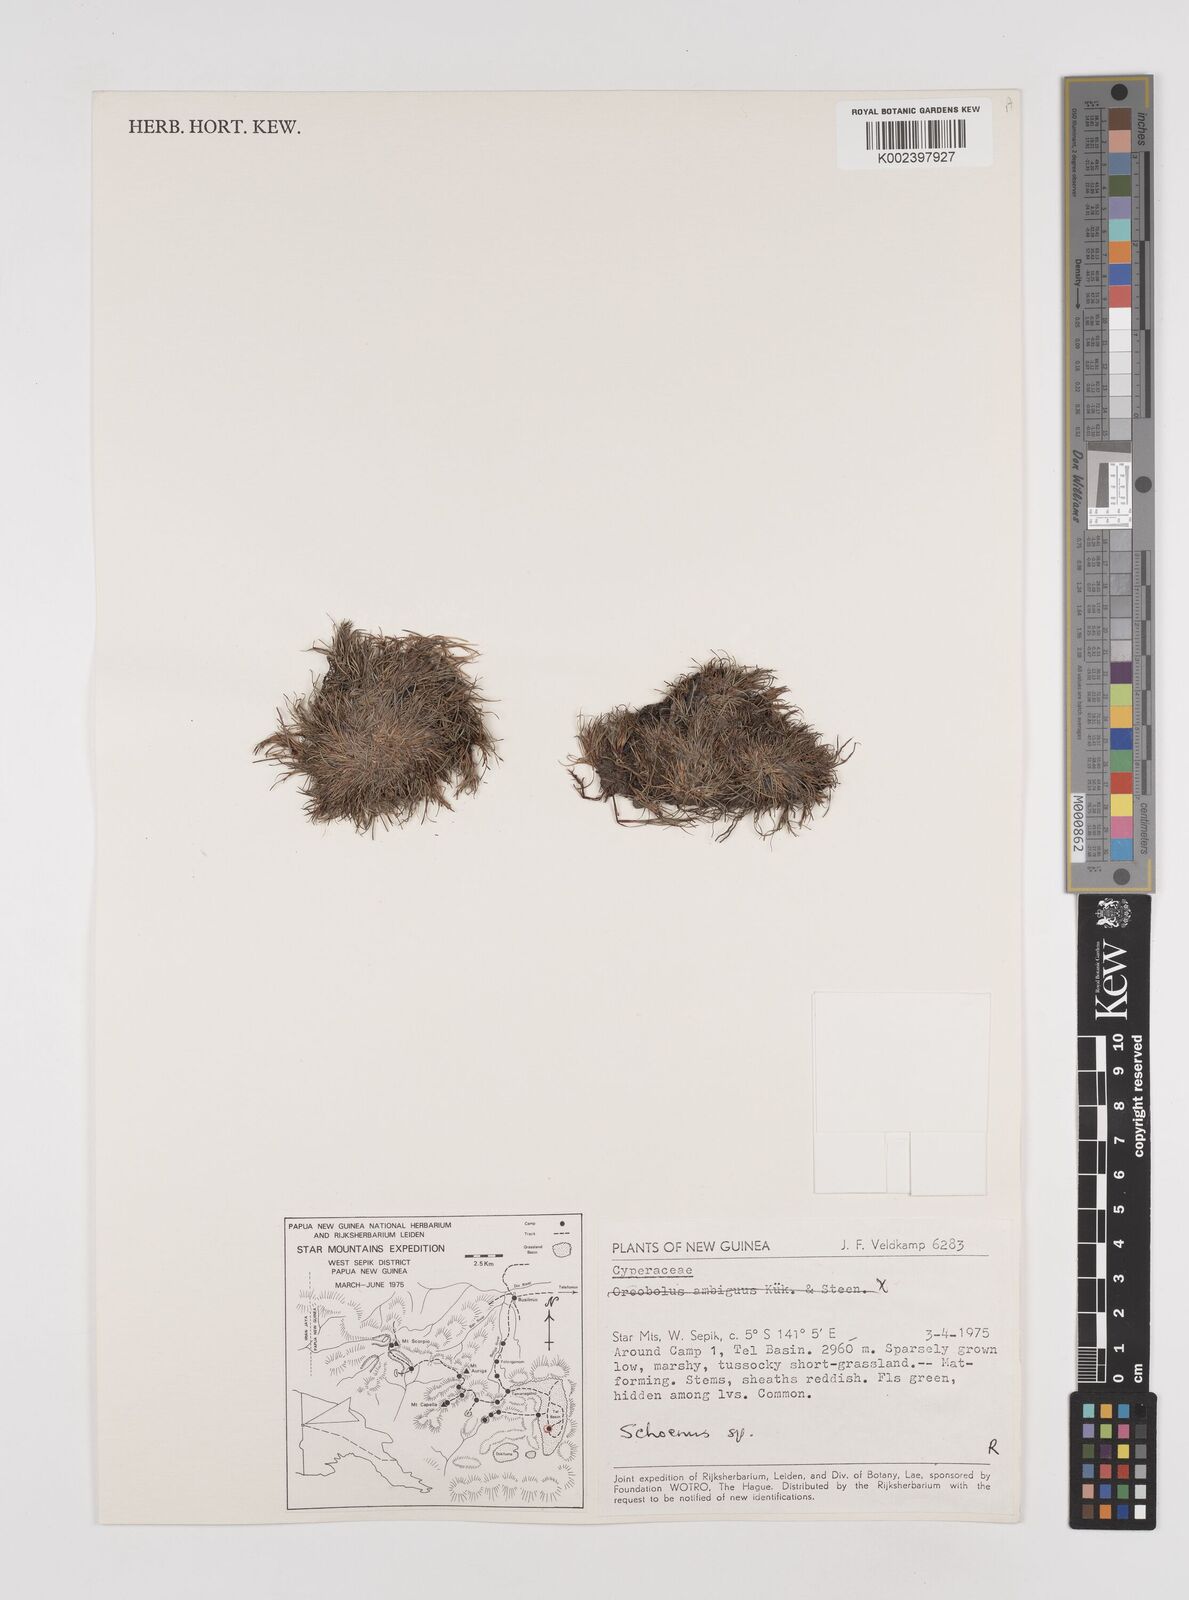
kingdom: Plantae
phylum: Tracheophyta
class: Liliopsida
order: Poales
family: Cyperaceae
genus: Schoenus
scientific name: Schoenus
